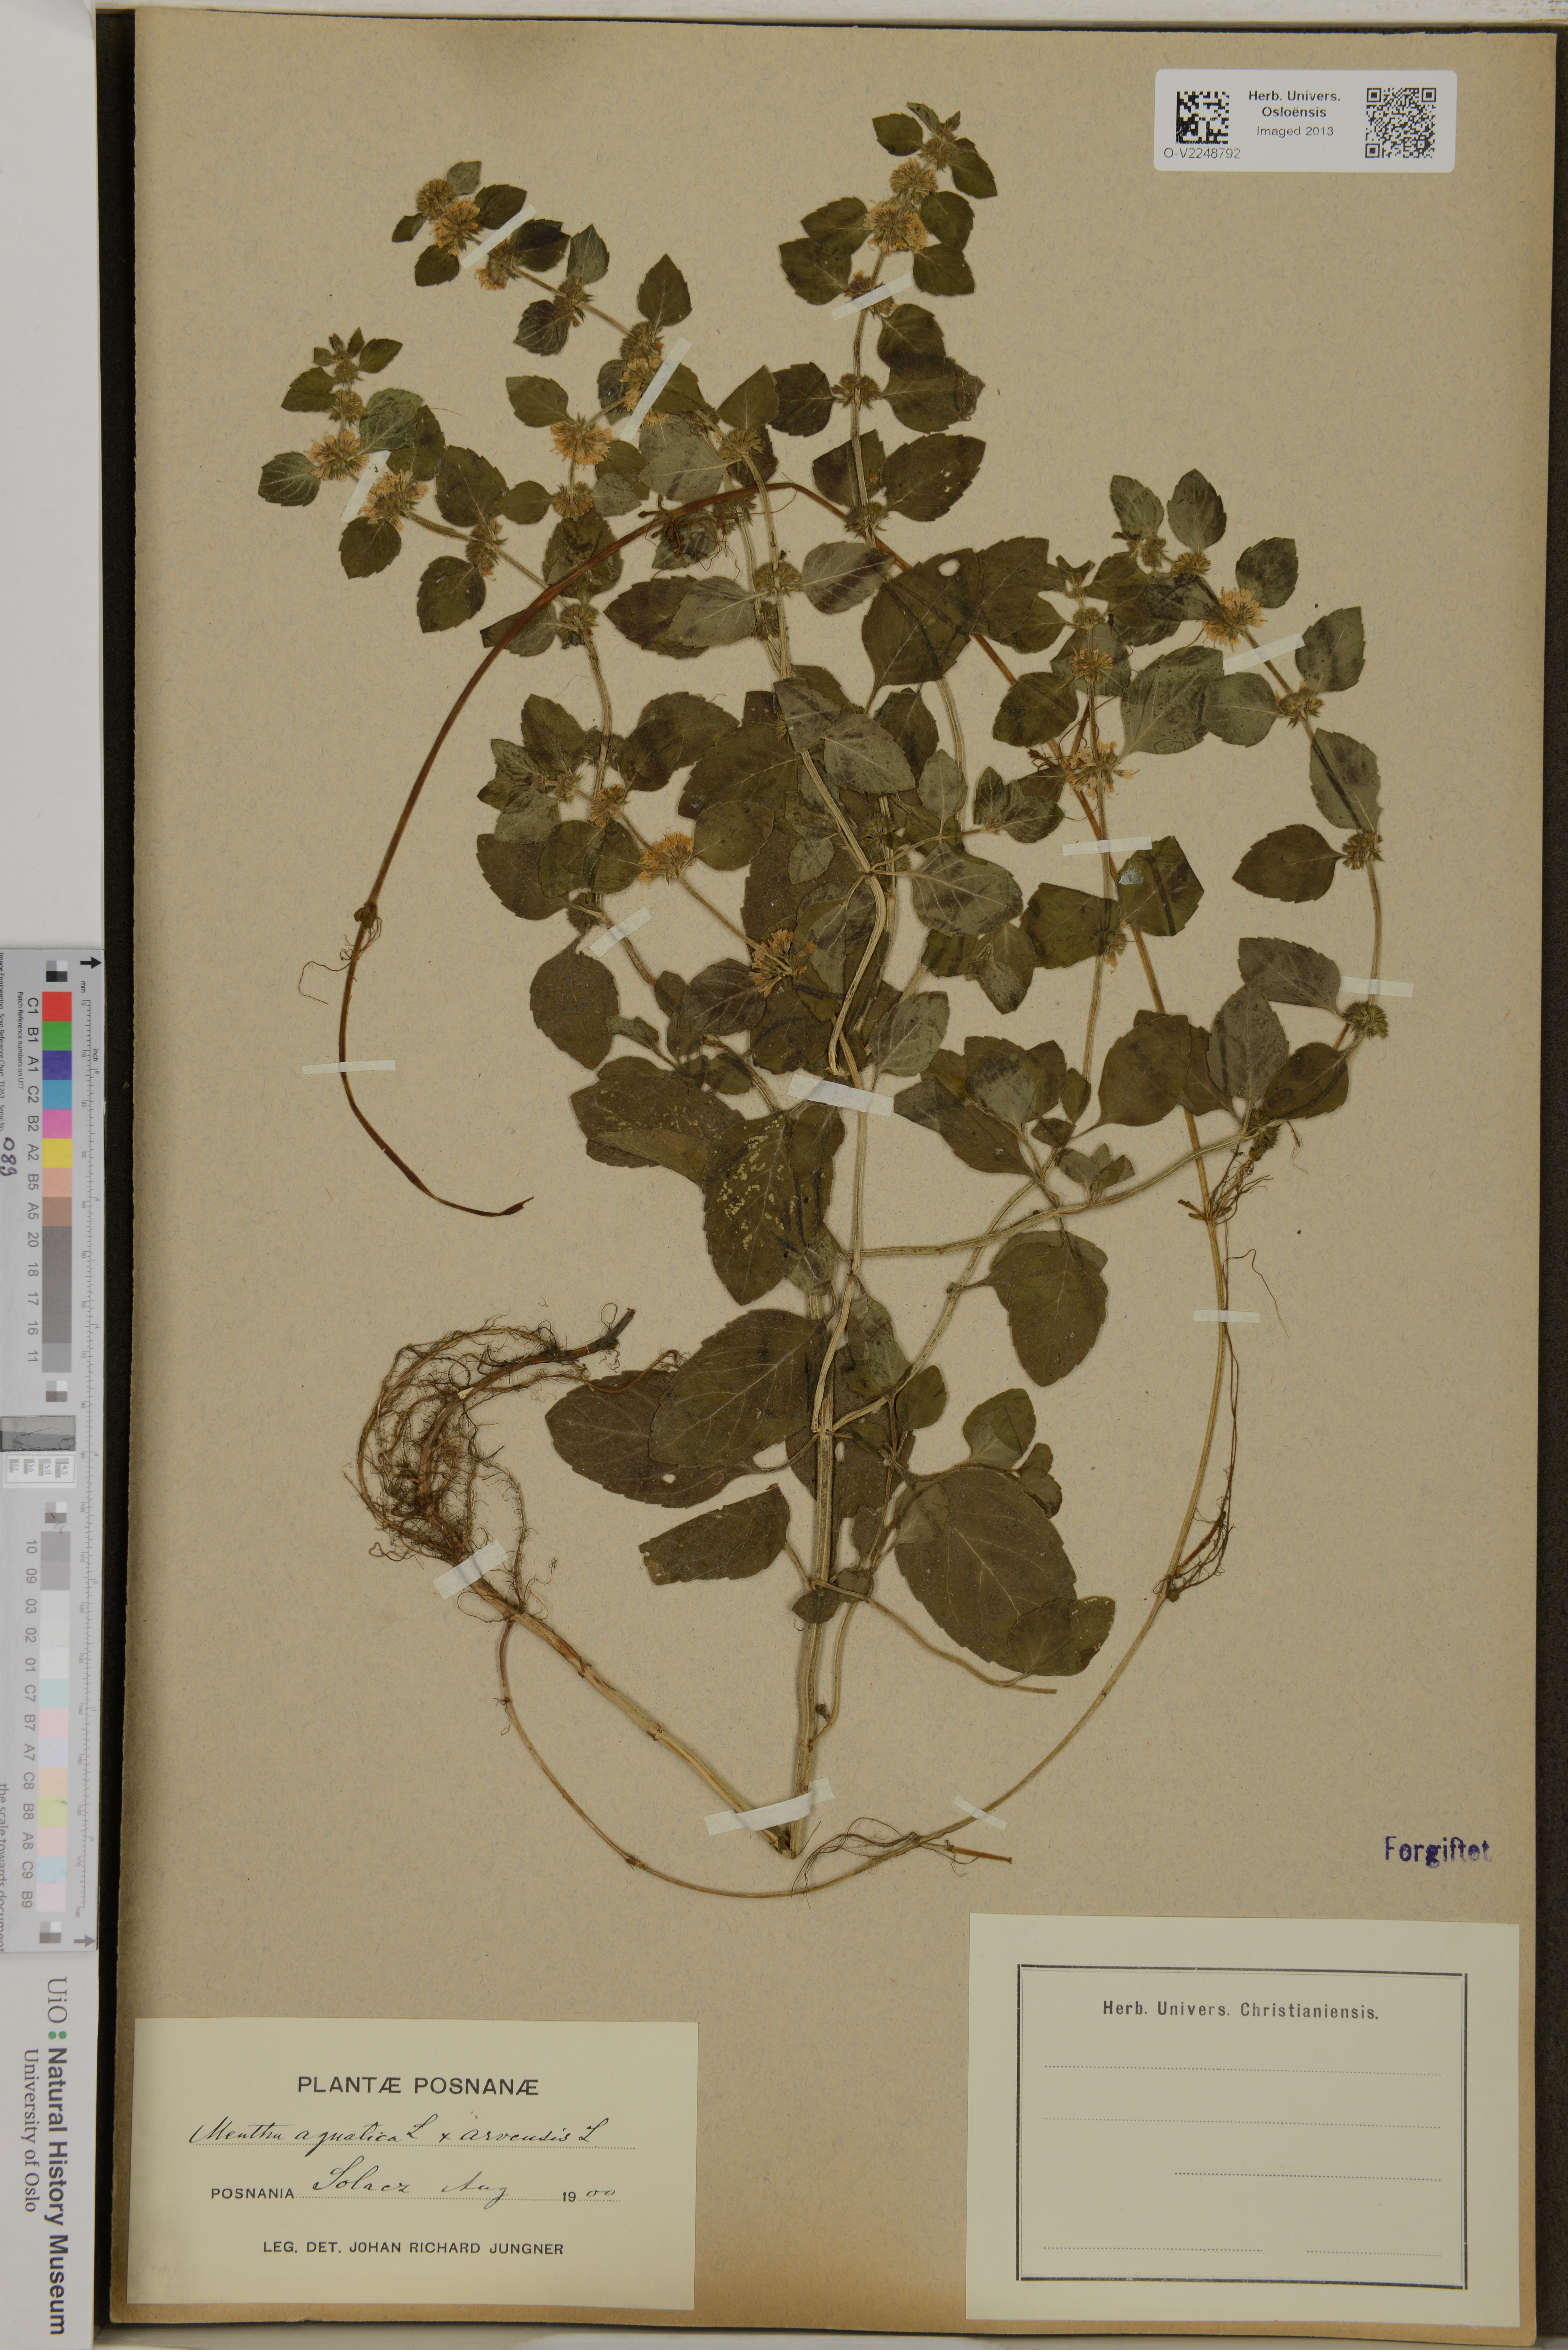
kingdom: Plantae
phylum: Tracheophyta
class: Magnoliopsida
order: Lamiales
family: Lamiaceae
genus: Mentha
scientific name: Mentha
